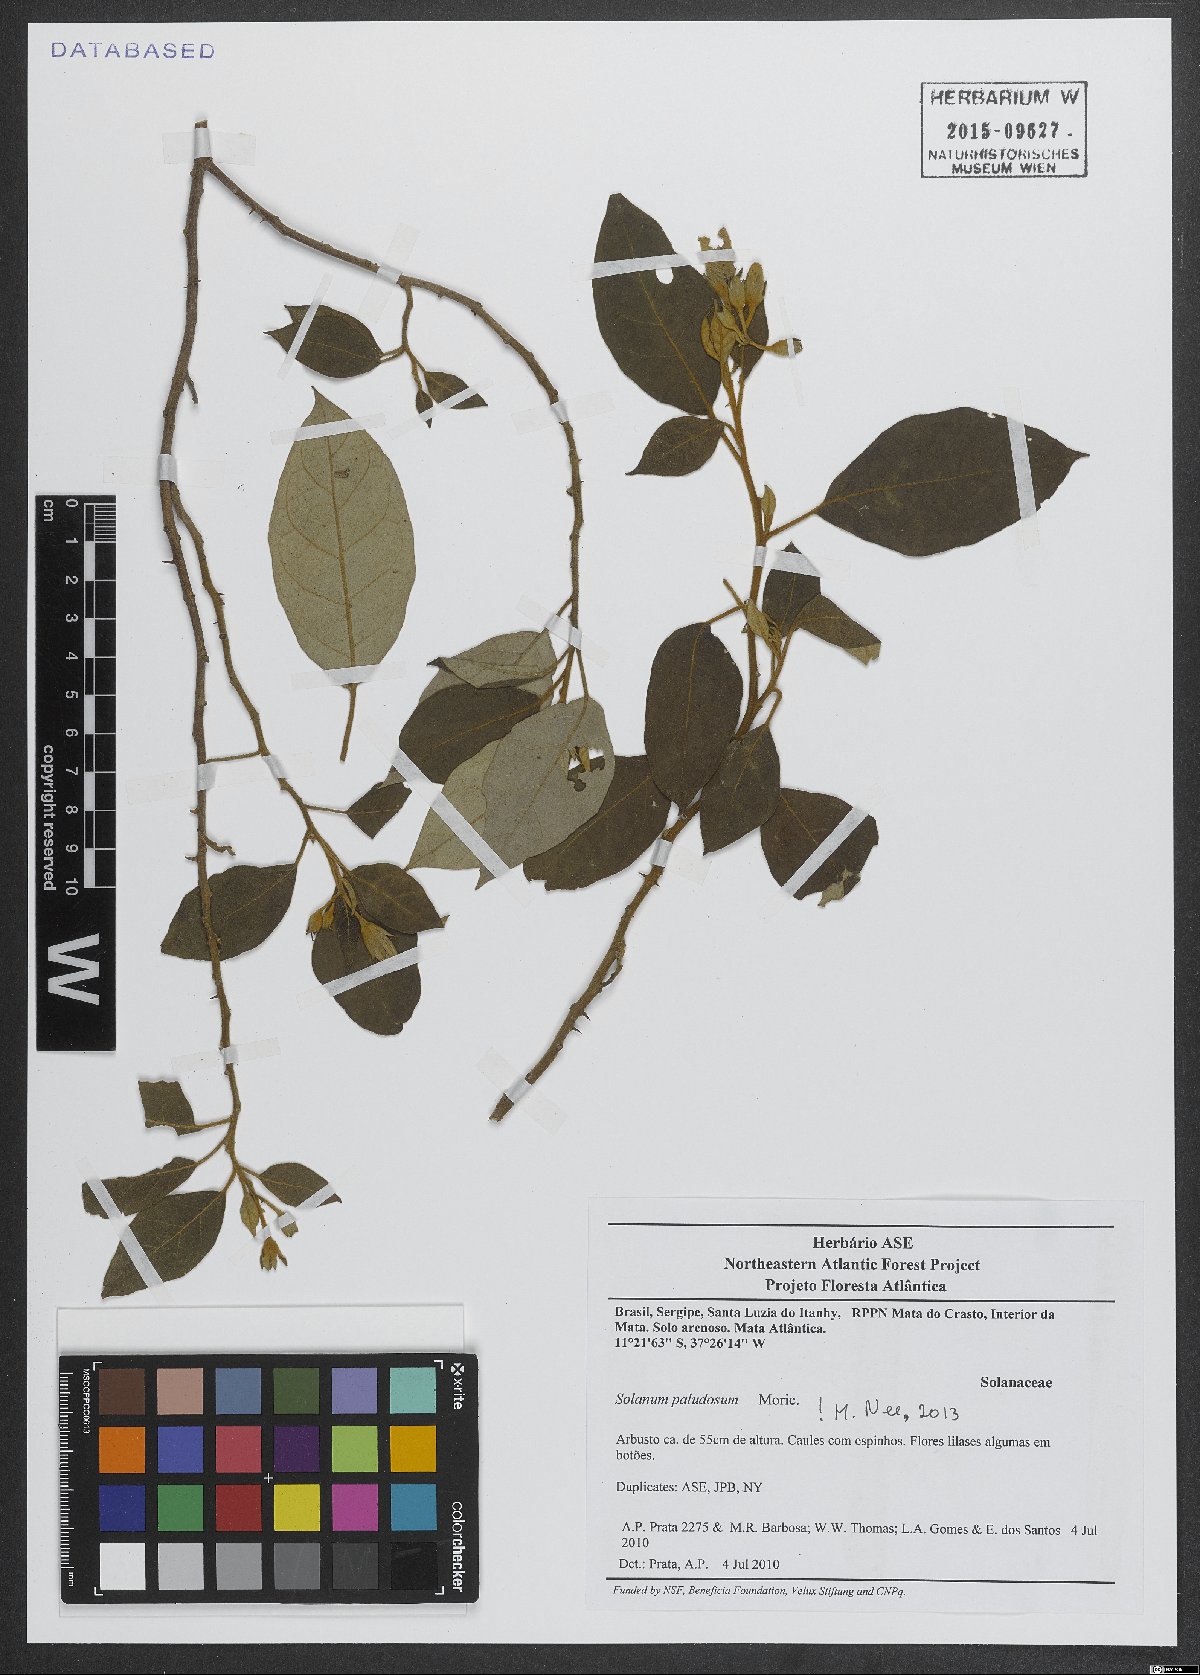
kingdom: Plantae
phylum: Tracheophyta
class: Magnoliopsida
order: Solanales
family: Solanaceae
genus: Solanum
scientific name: Solanum paludosum
